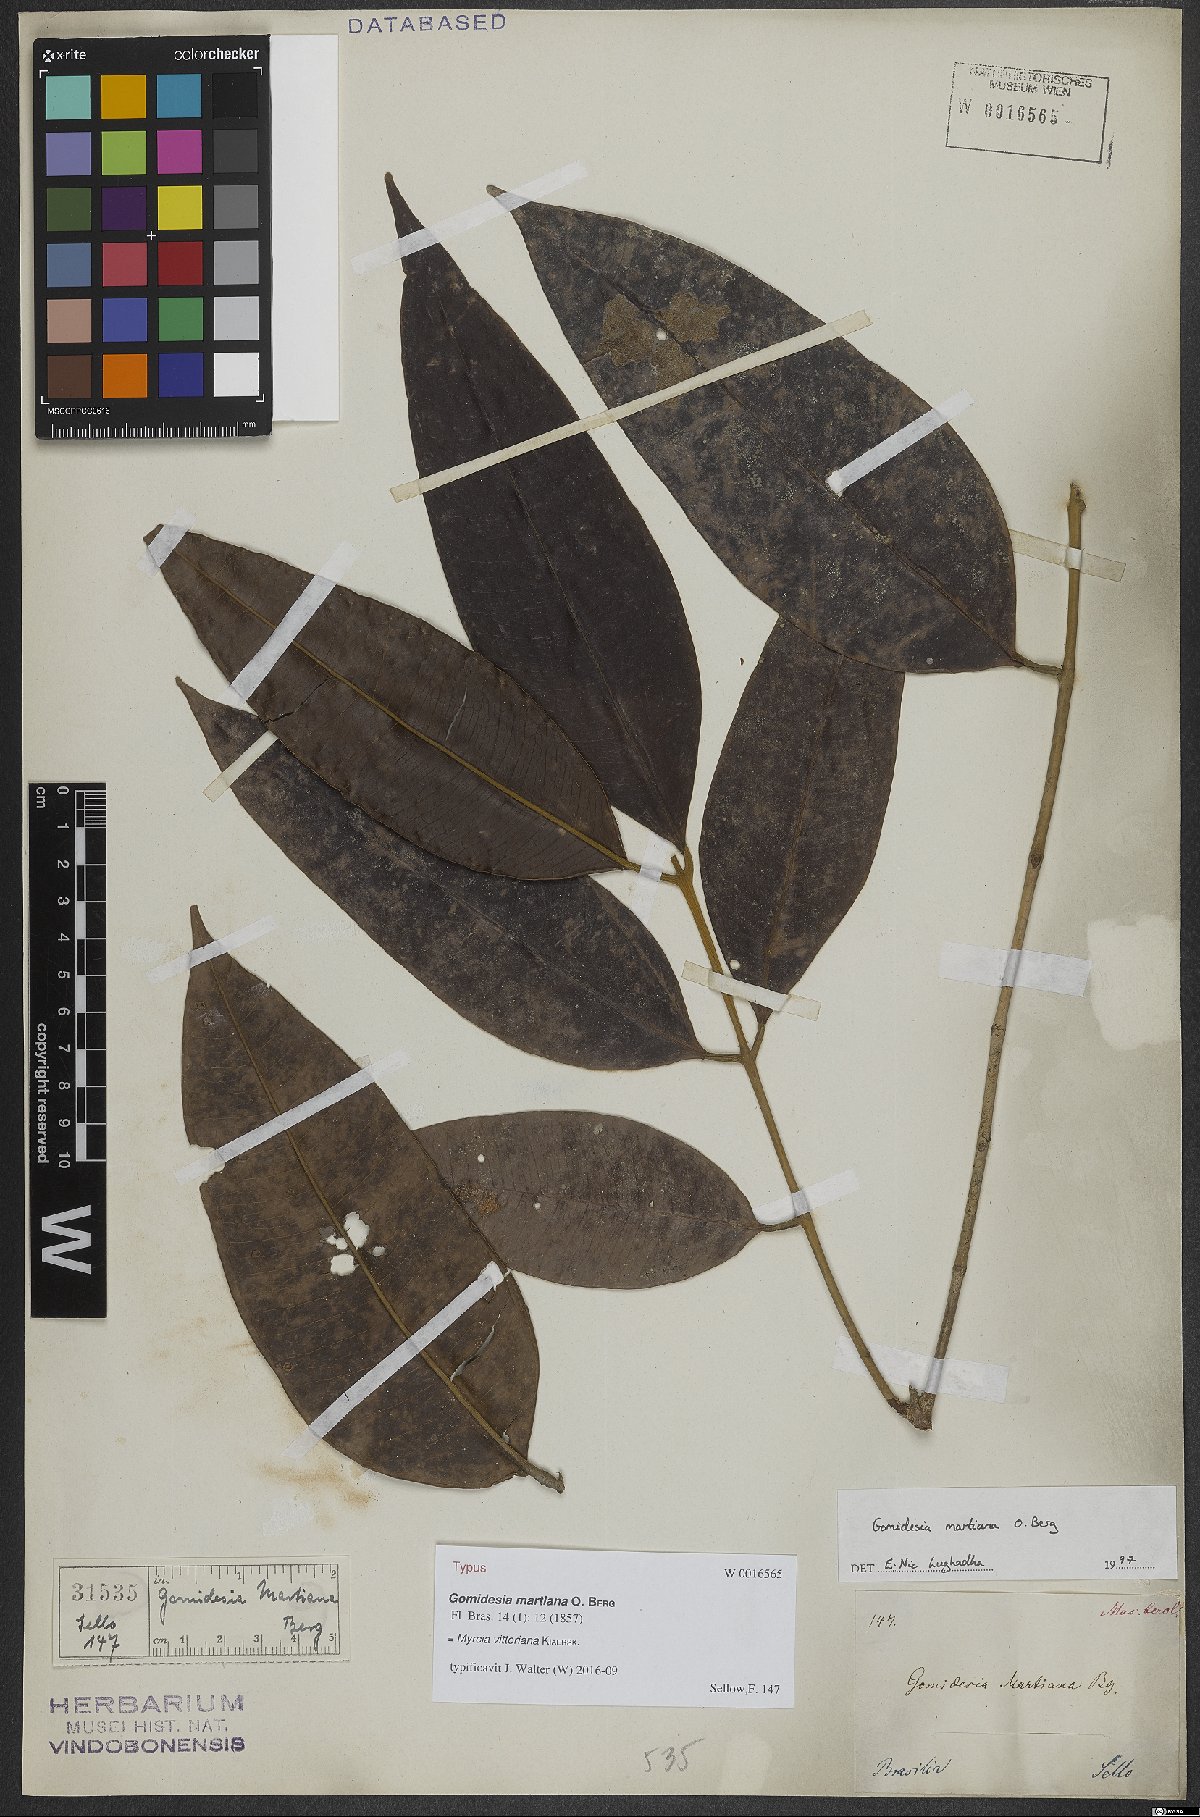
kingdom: Plantae
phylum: Tracheophyta
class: Magnoliopsida
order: Myrtales
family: Myrtaceae
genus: Myrcia
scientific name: Myrcia vittoriana
